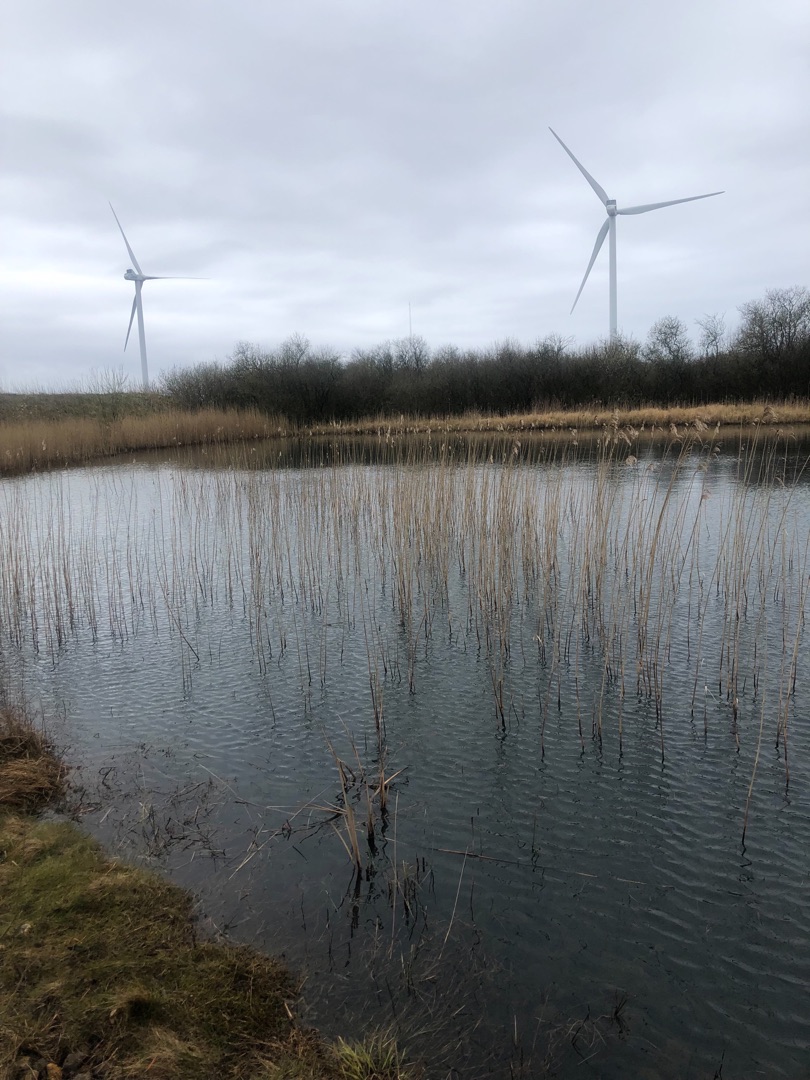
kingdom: Animalia
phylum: Chordata
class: Amphibia
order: Anura
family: Bufonidae
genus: Bufo
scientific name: Bufo bufo
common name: Skrubtudse
